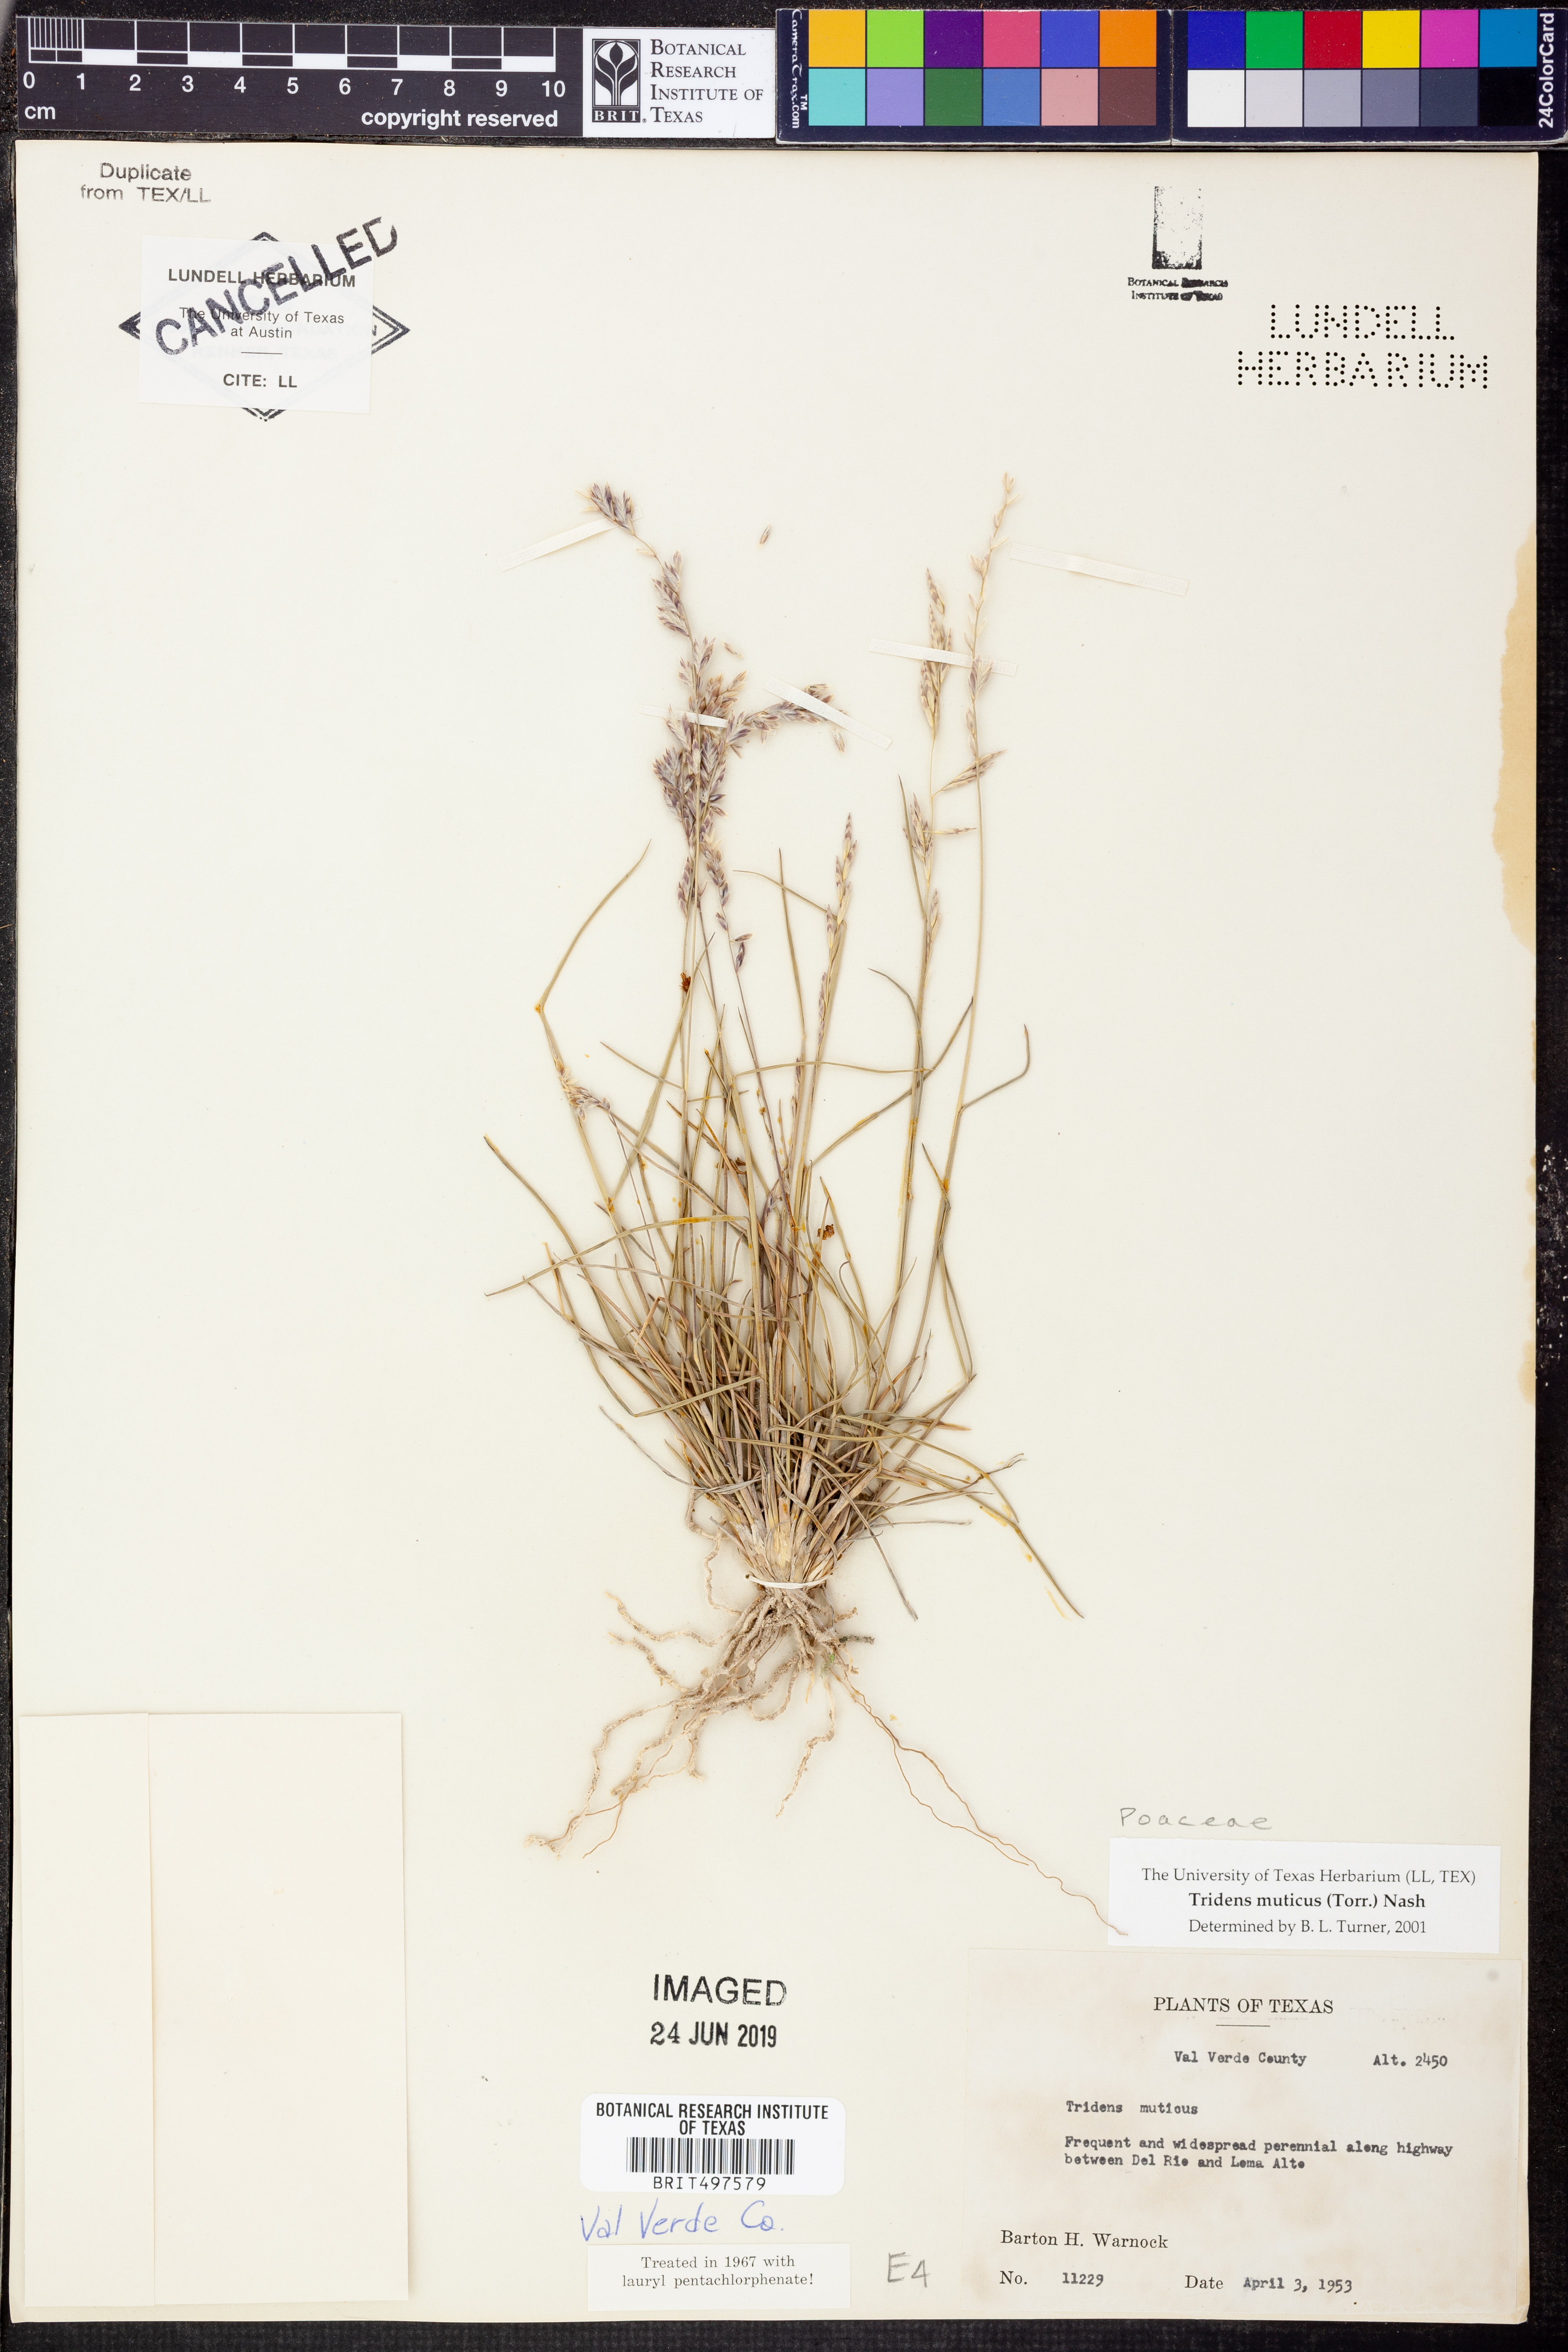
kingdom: Plantae
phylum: Tracheophyta
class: Liliopsida
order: Poales
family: Poaceae
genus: Tridentopsis
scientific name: Tridentopsis mutica
